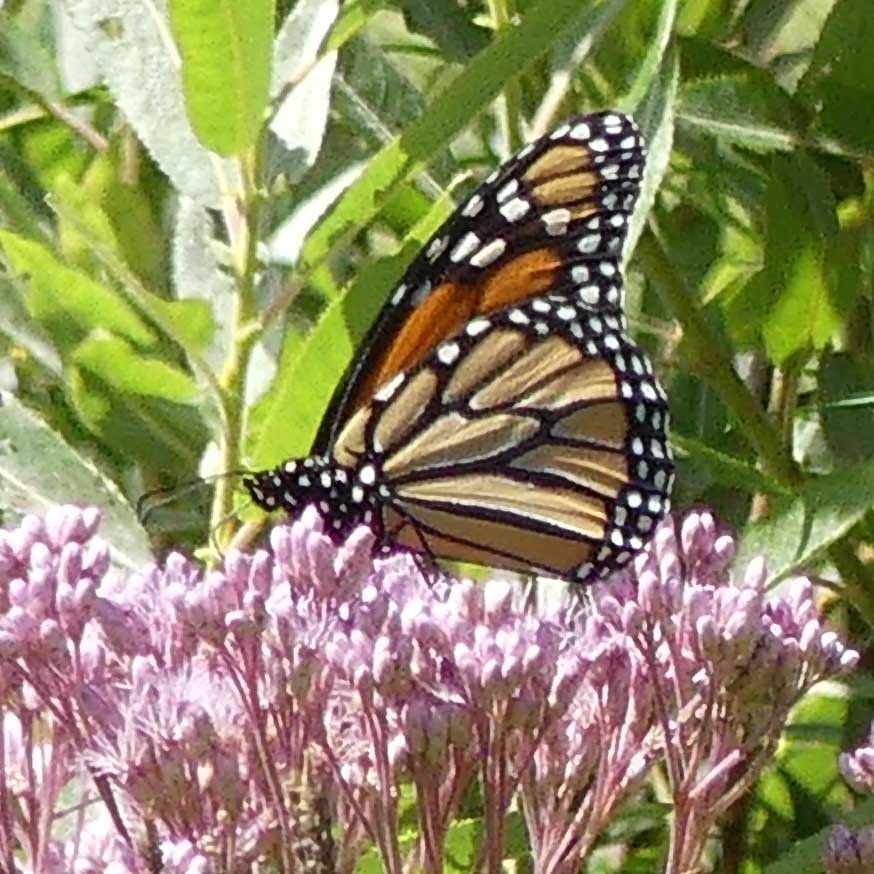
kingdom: Animalia
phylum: Arthropoda
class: Insecta
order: Lepidoptera
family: Nymphalidae
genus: Danaus
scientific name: Danaus plexippus
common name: Monarch
